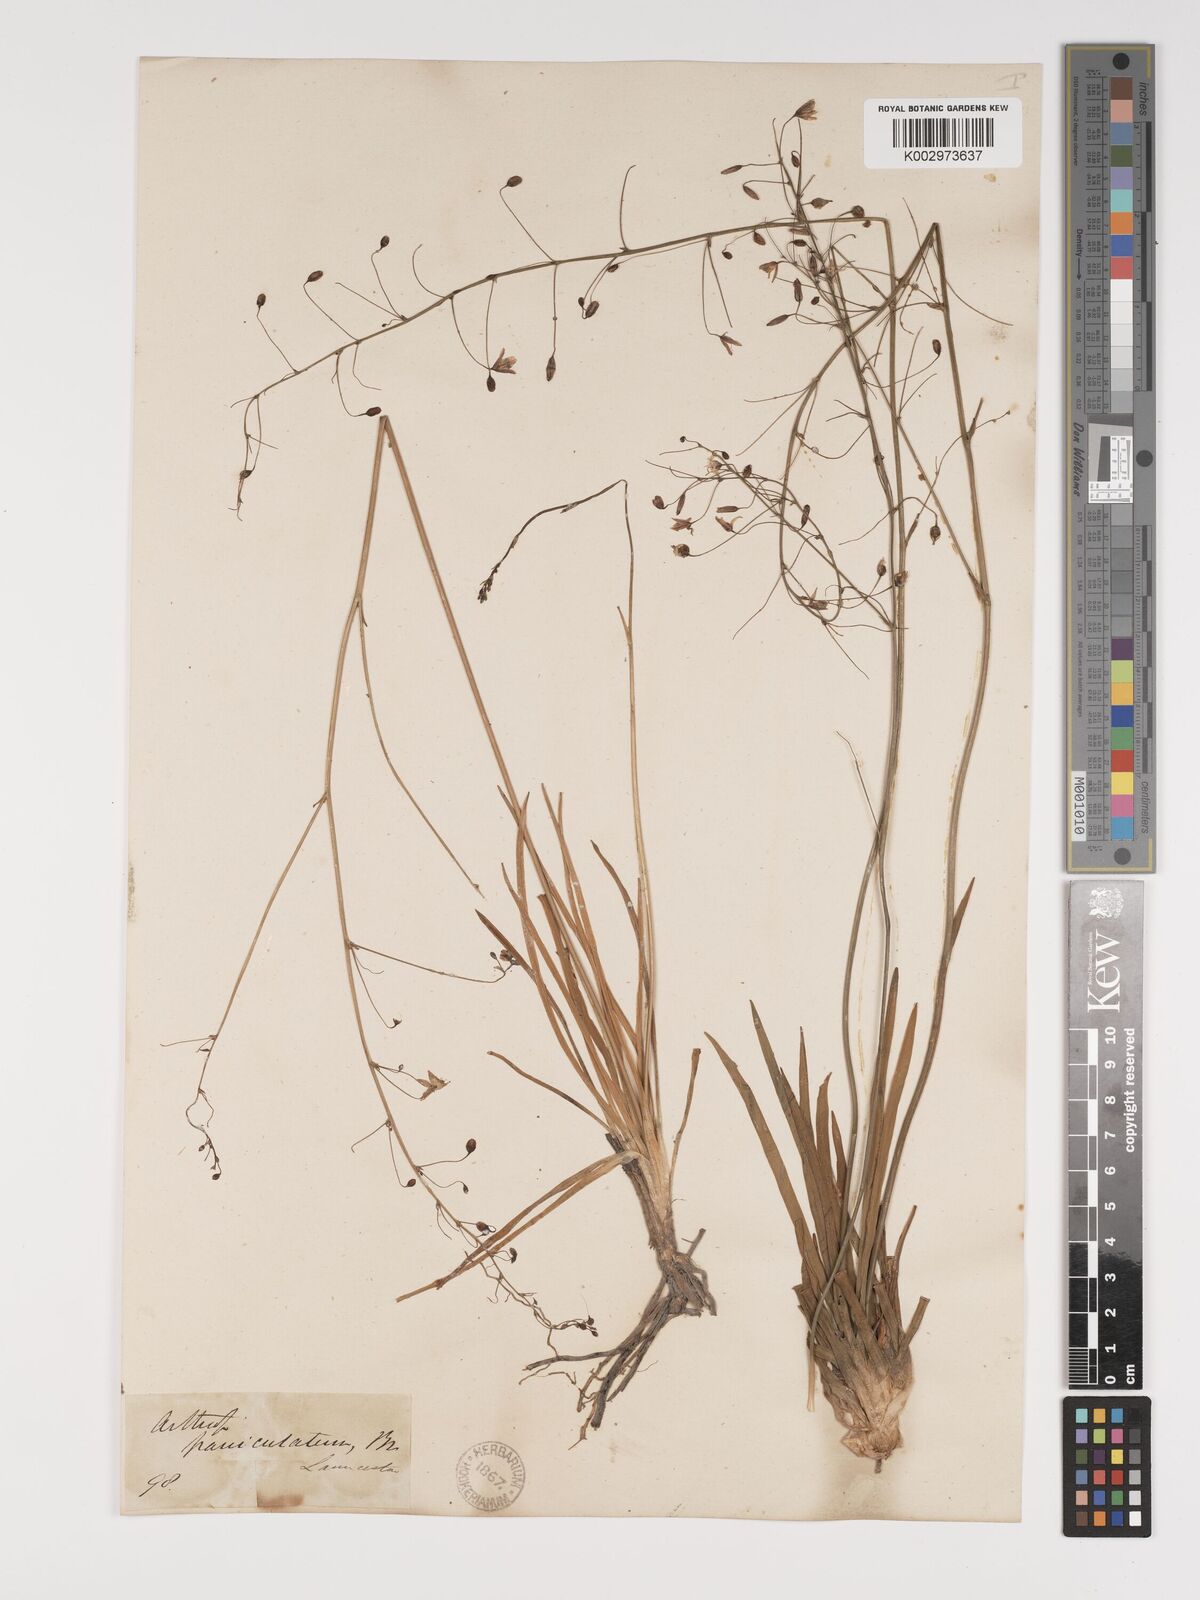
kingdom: Plantae
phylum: Tracheophyta
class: Liliopsida
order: Asparagales
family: Asparagaceae
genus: Arthropodium
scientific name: Arthropodium milleflorum
